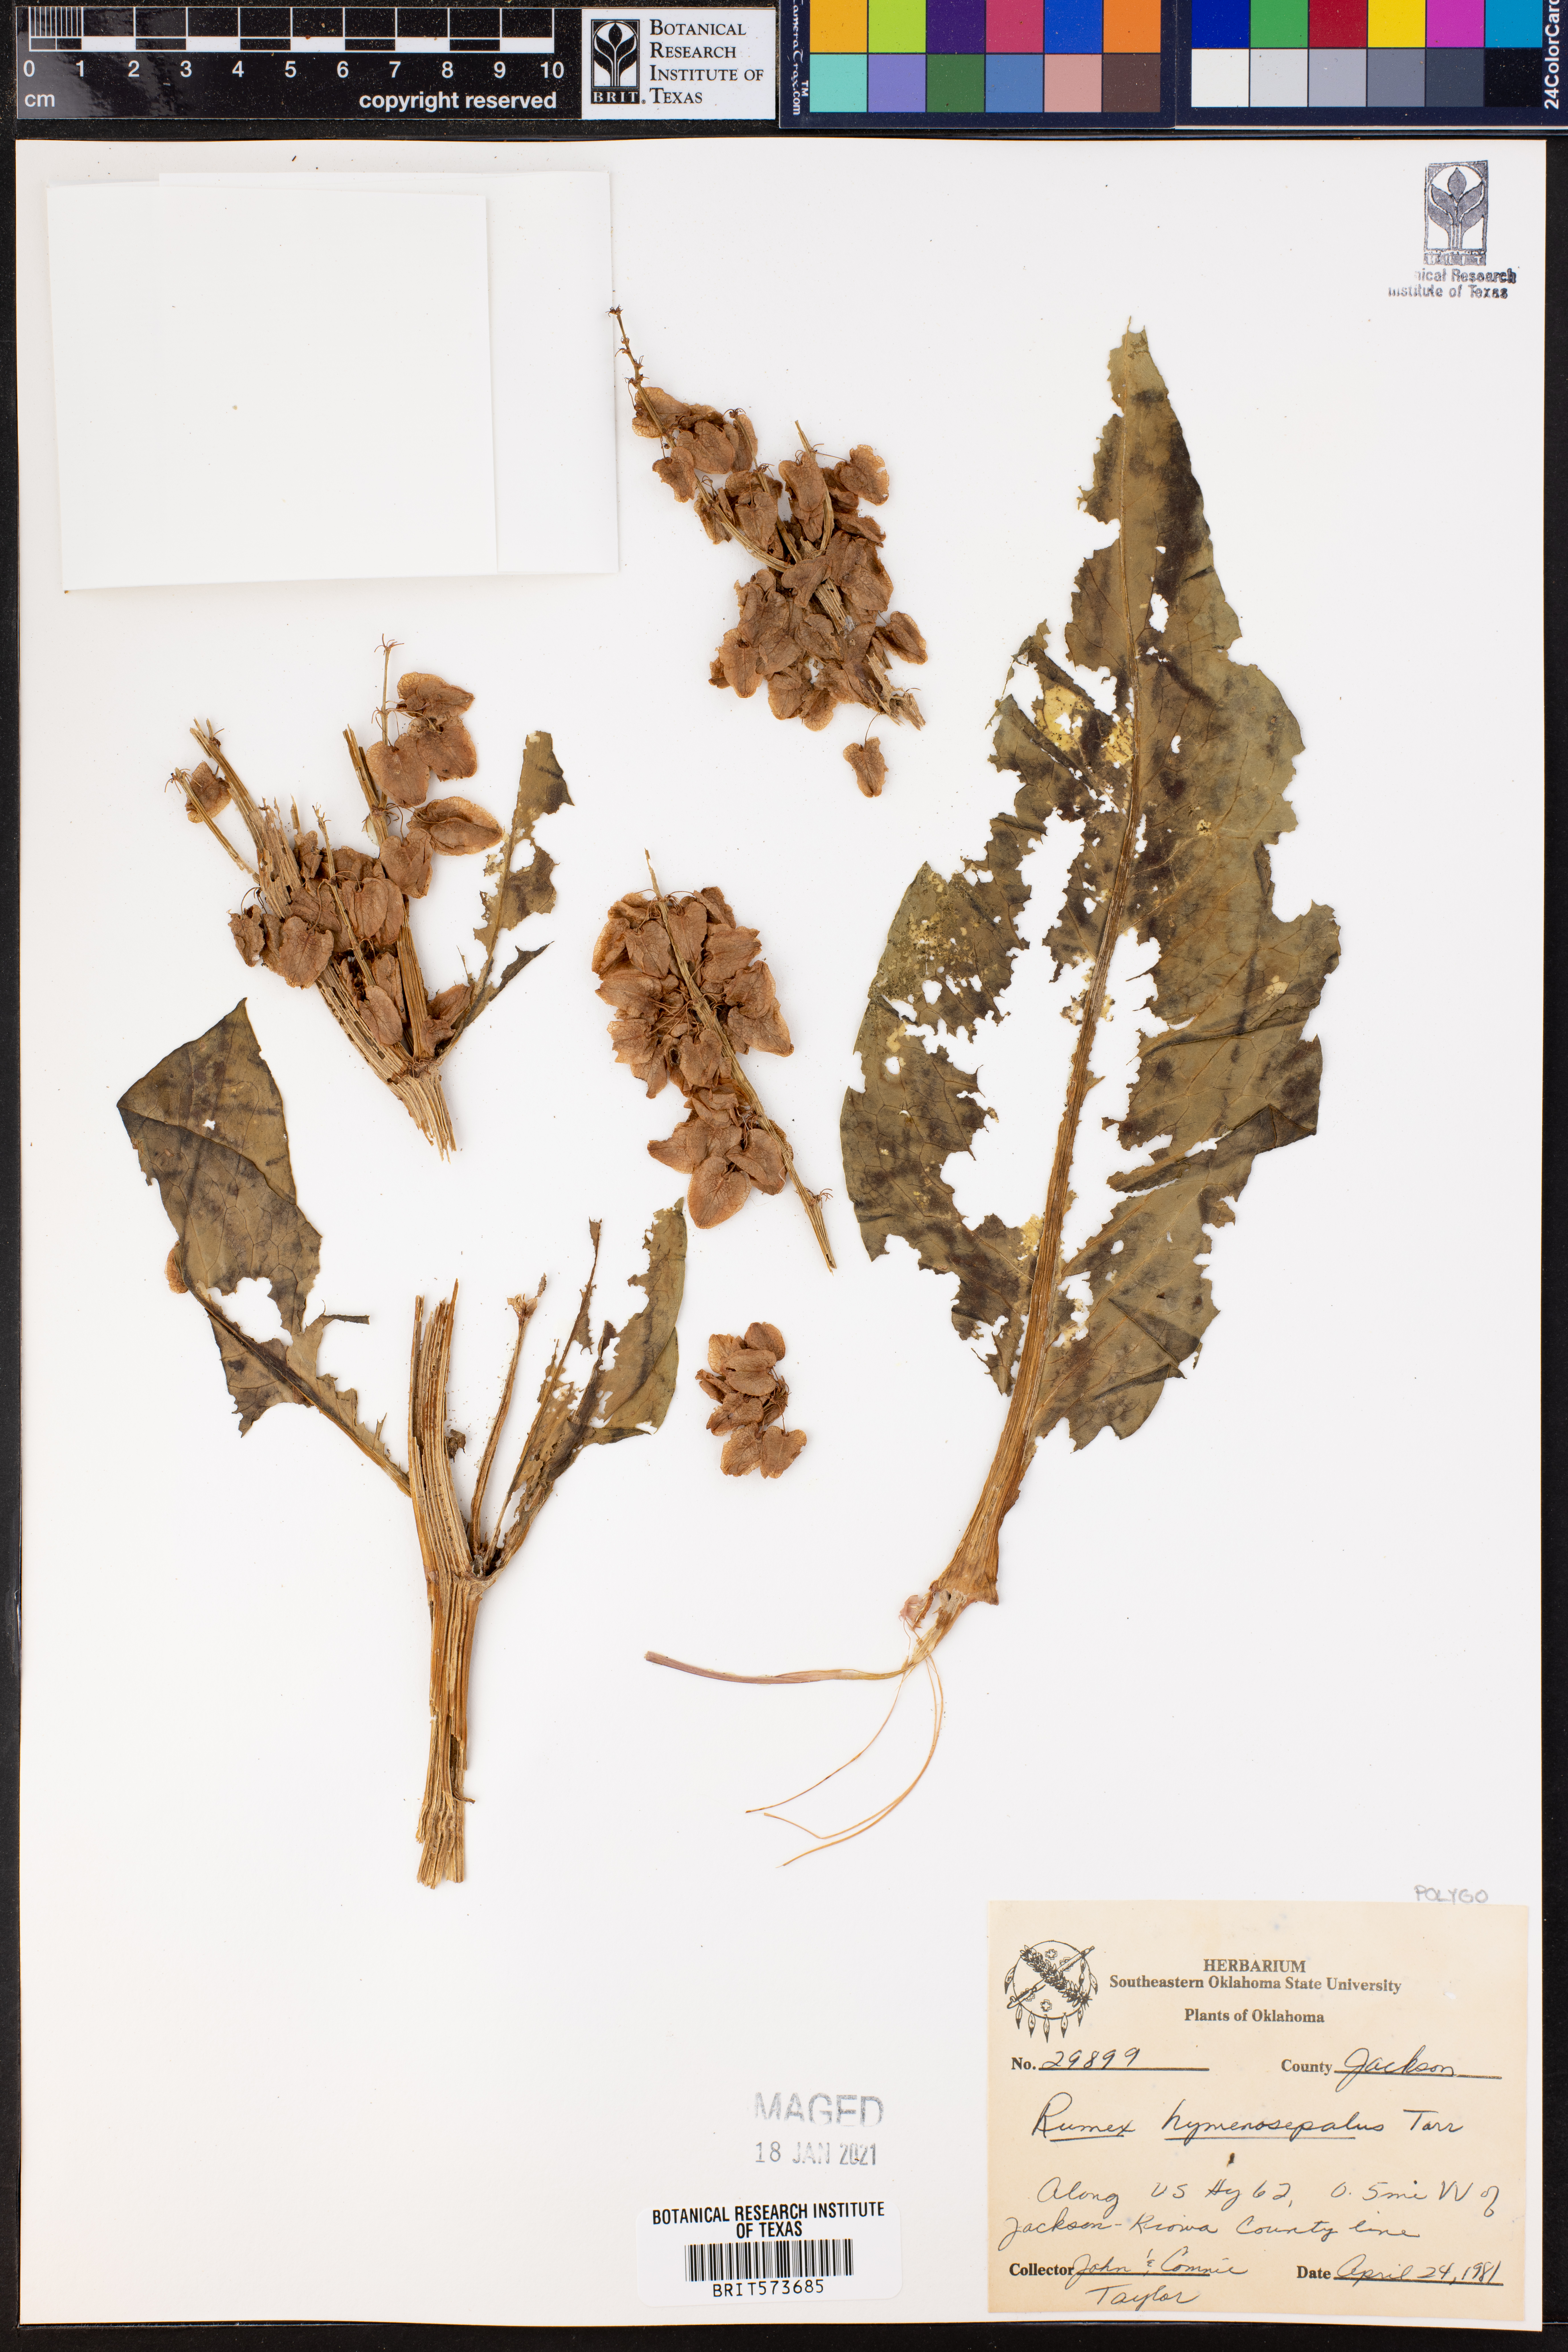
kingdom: Plantae
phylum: Tracheophyta
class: Magnoliopsida
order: Caryophyllales
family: Polygonaceae
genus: Rumex
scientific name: Rumex hymenosepalus
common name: Ganagra
